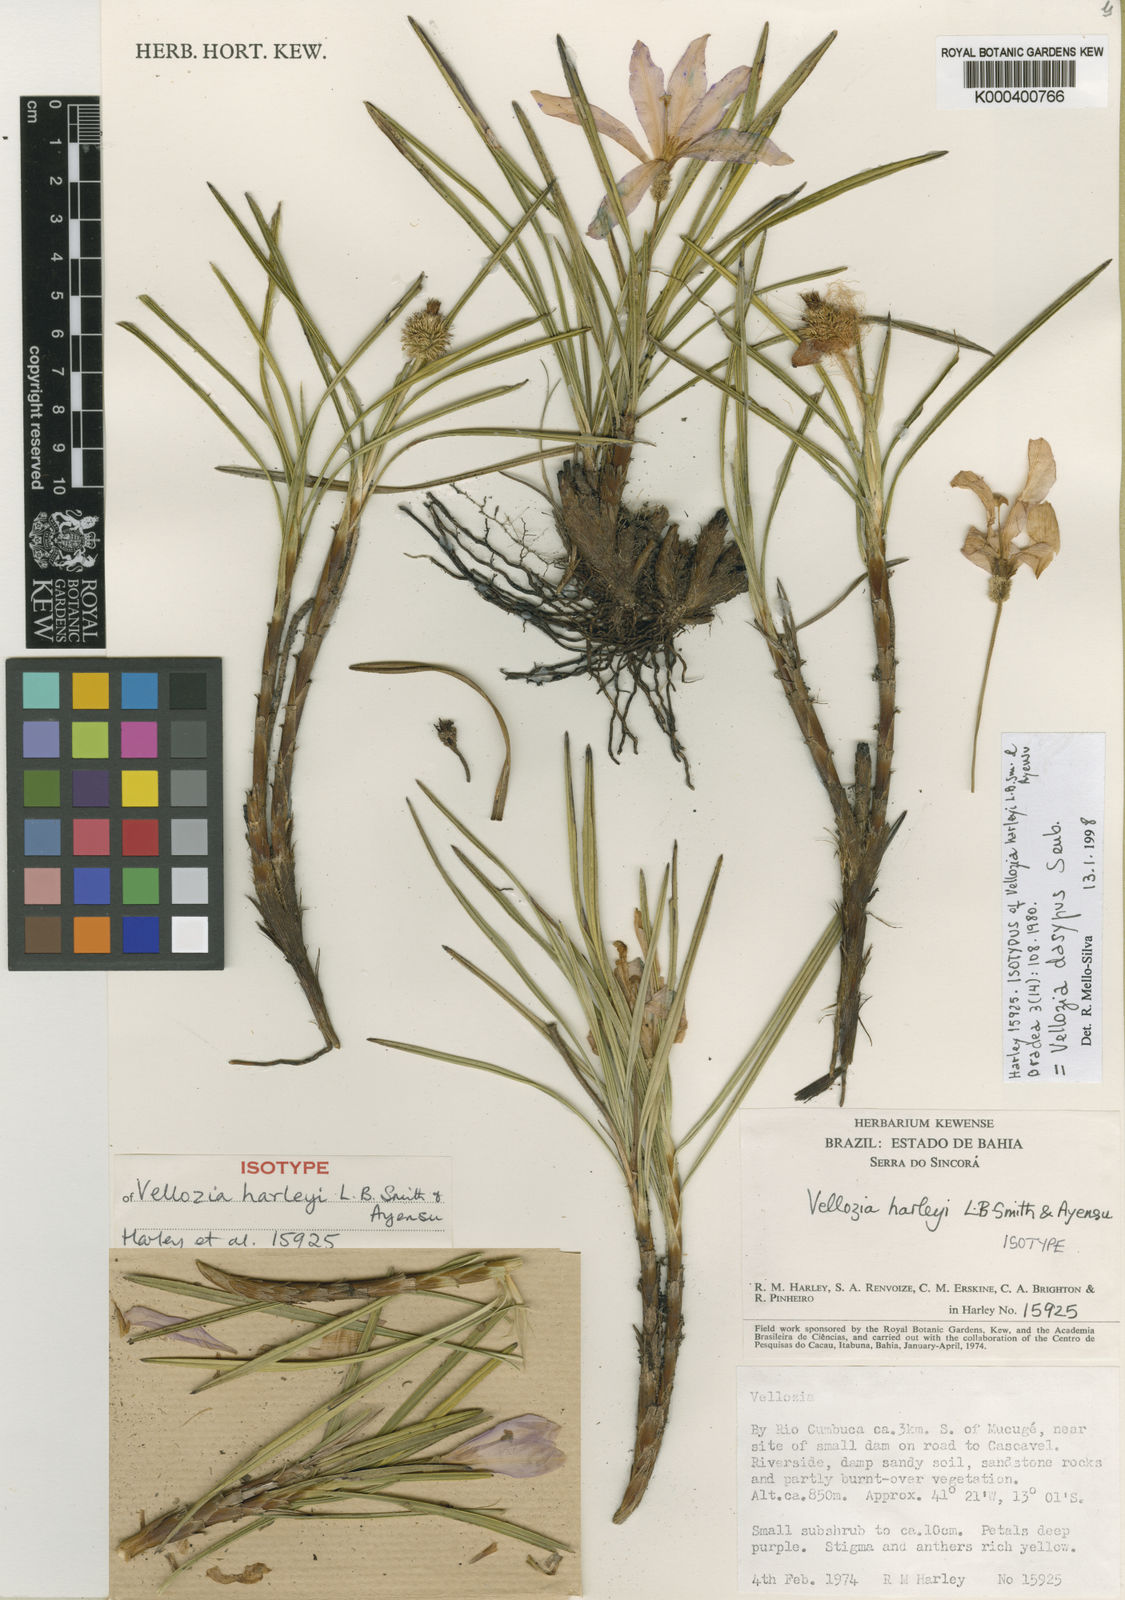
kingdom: Plantae
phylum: Tracheophyta
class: Liliopsida
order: Pandanales
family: Velloziaceae
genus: Vellozia
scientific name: Vellozia dasypus
